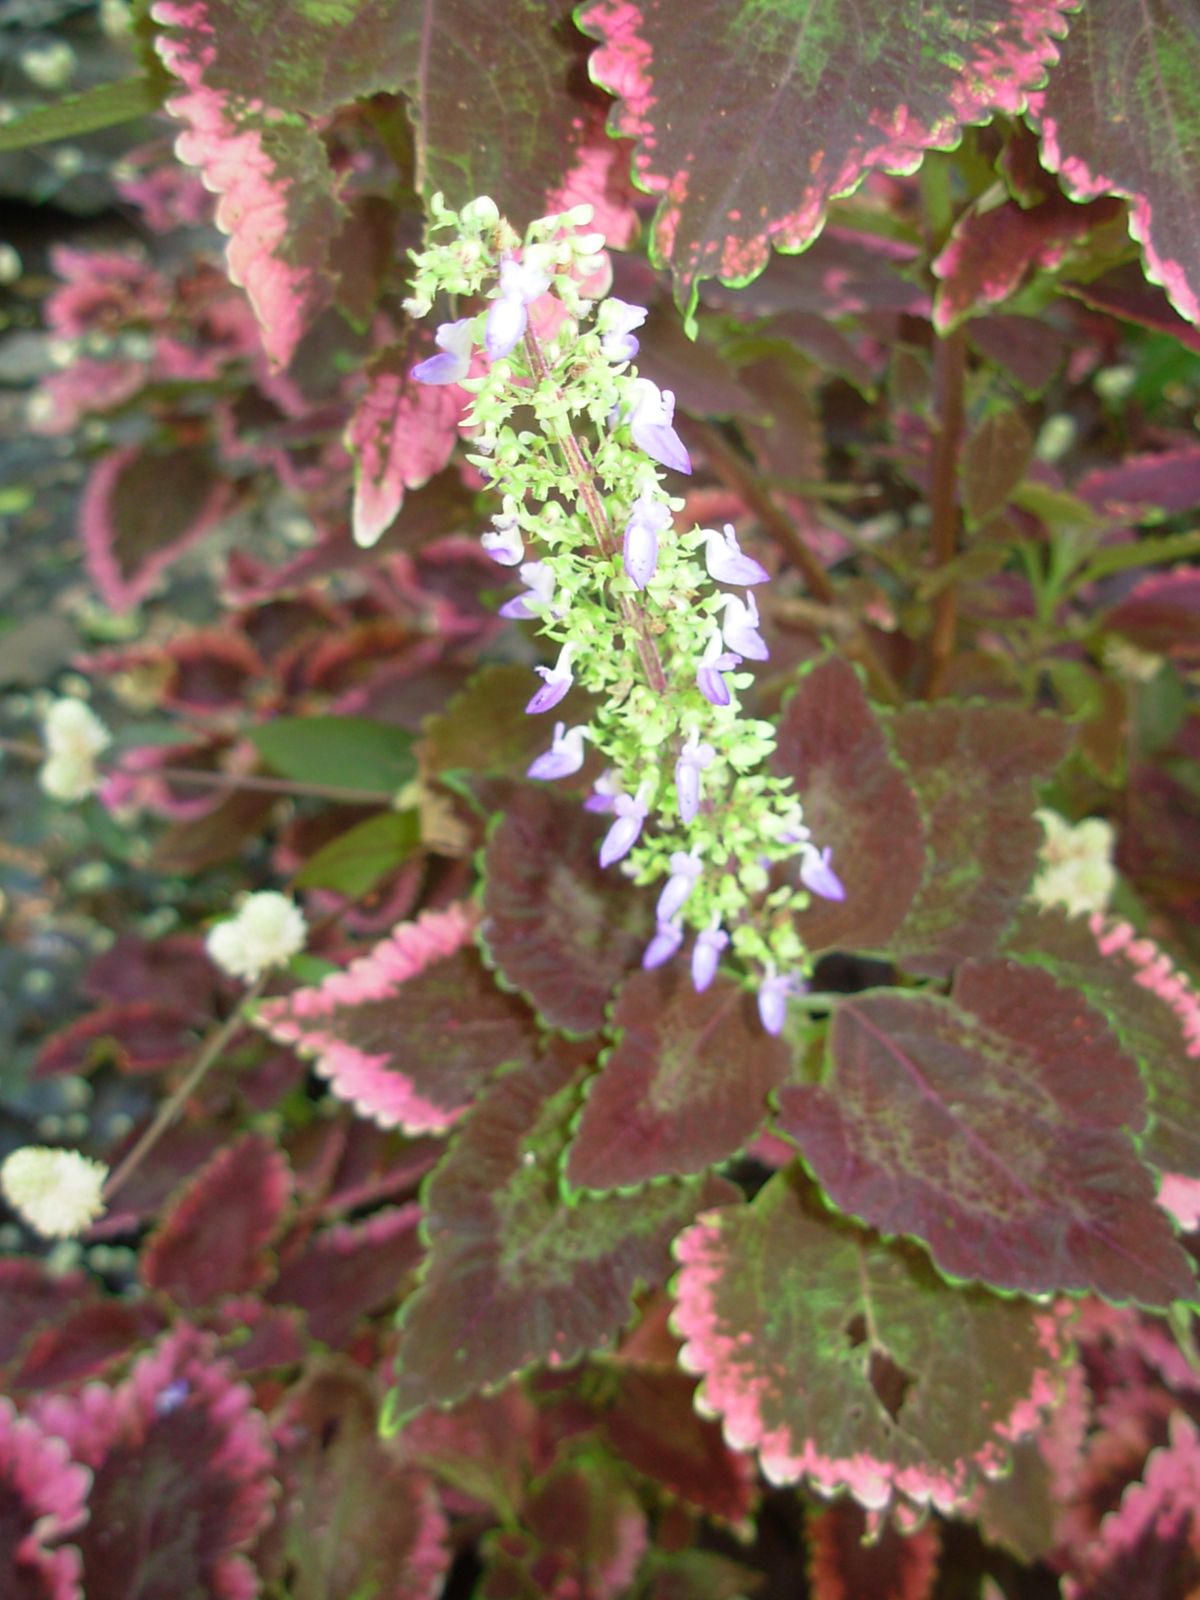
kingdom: Plantae
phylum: Tracheophyta
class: Magnoliopsida
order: Lamiales
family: Lamiaceae
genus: Coleus
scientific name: Coleus scutellarioides
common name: Coleus
